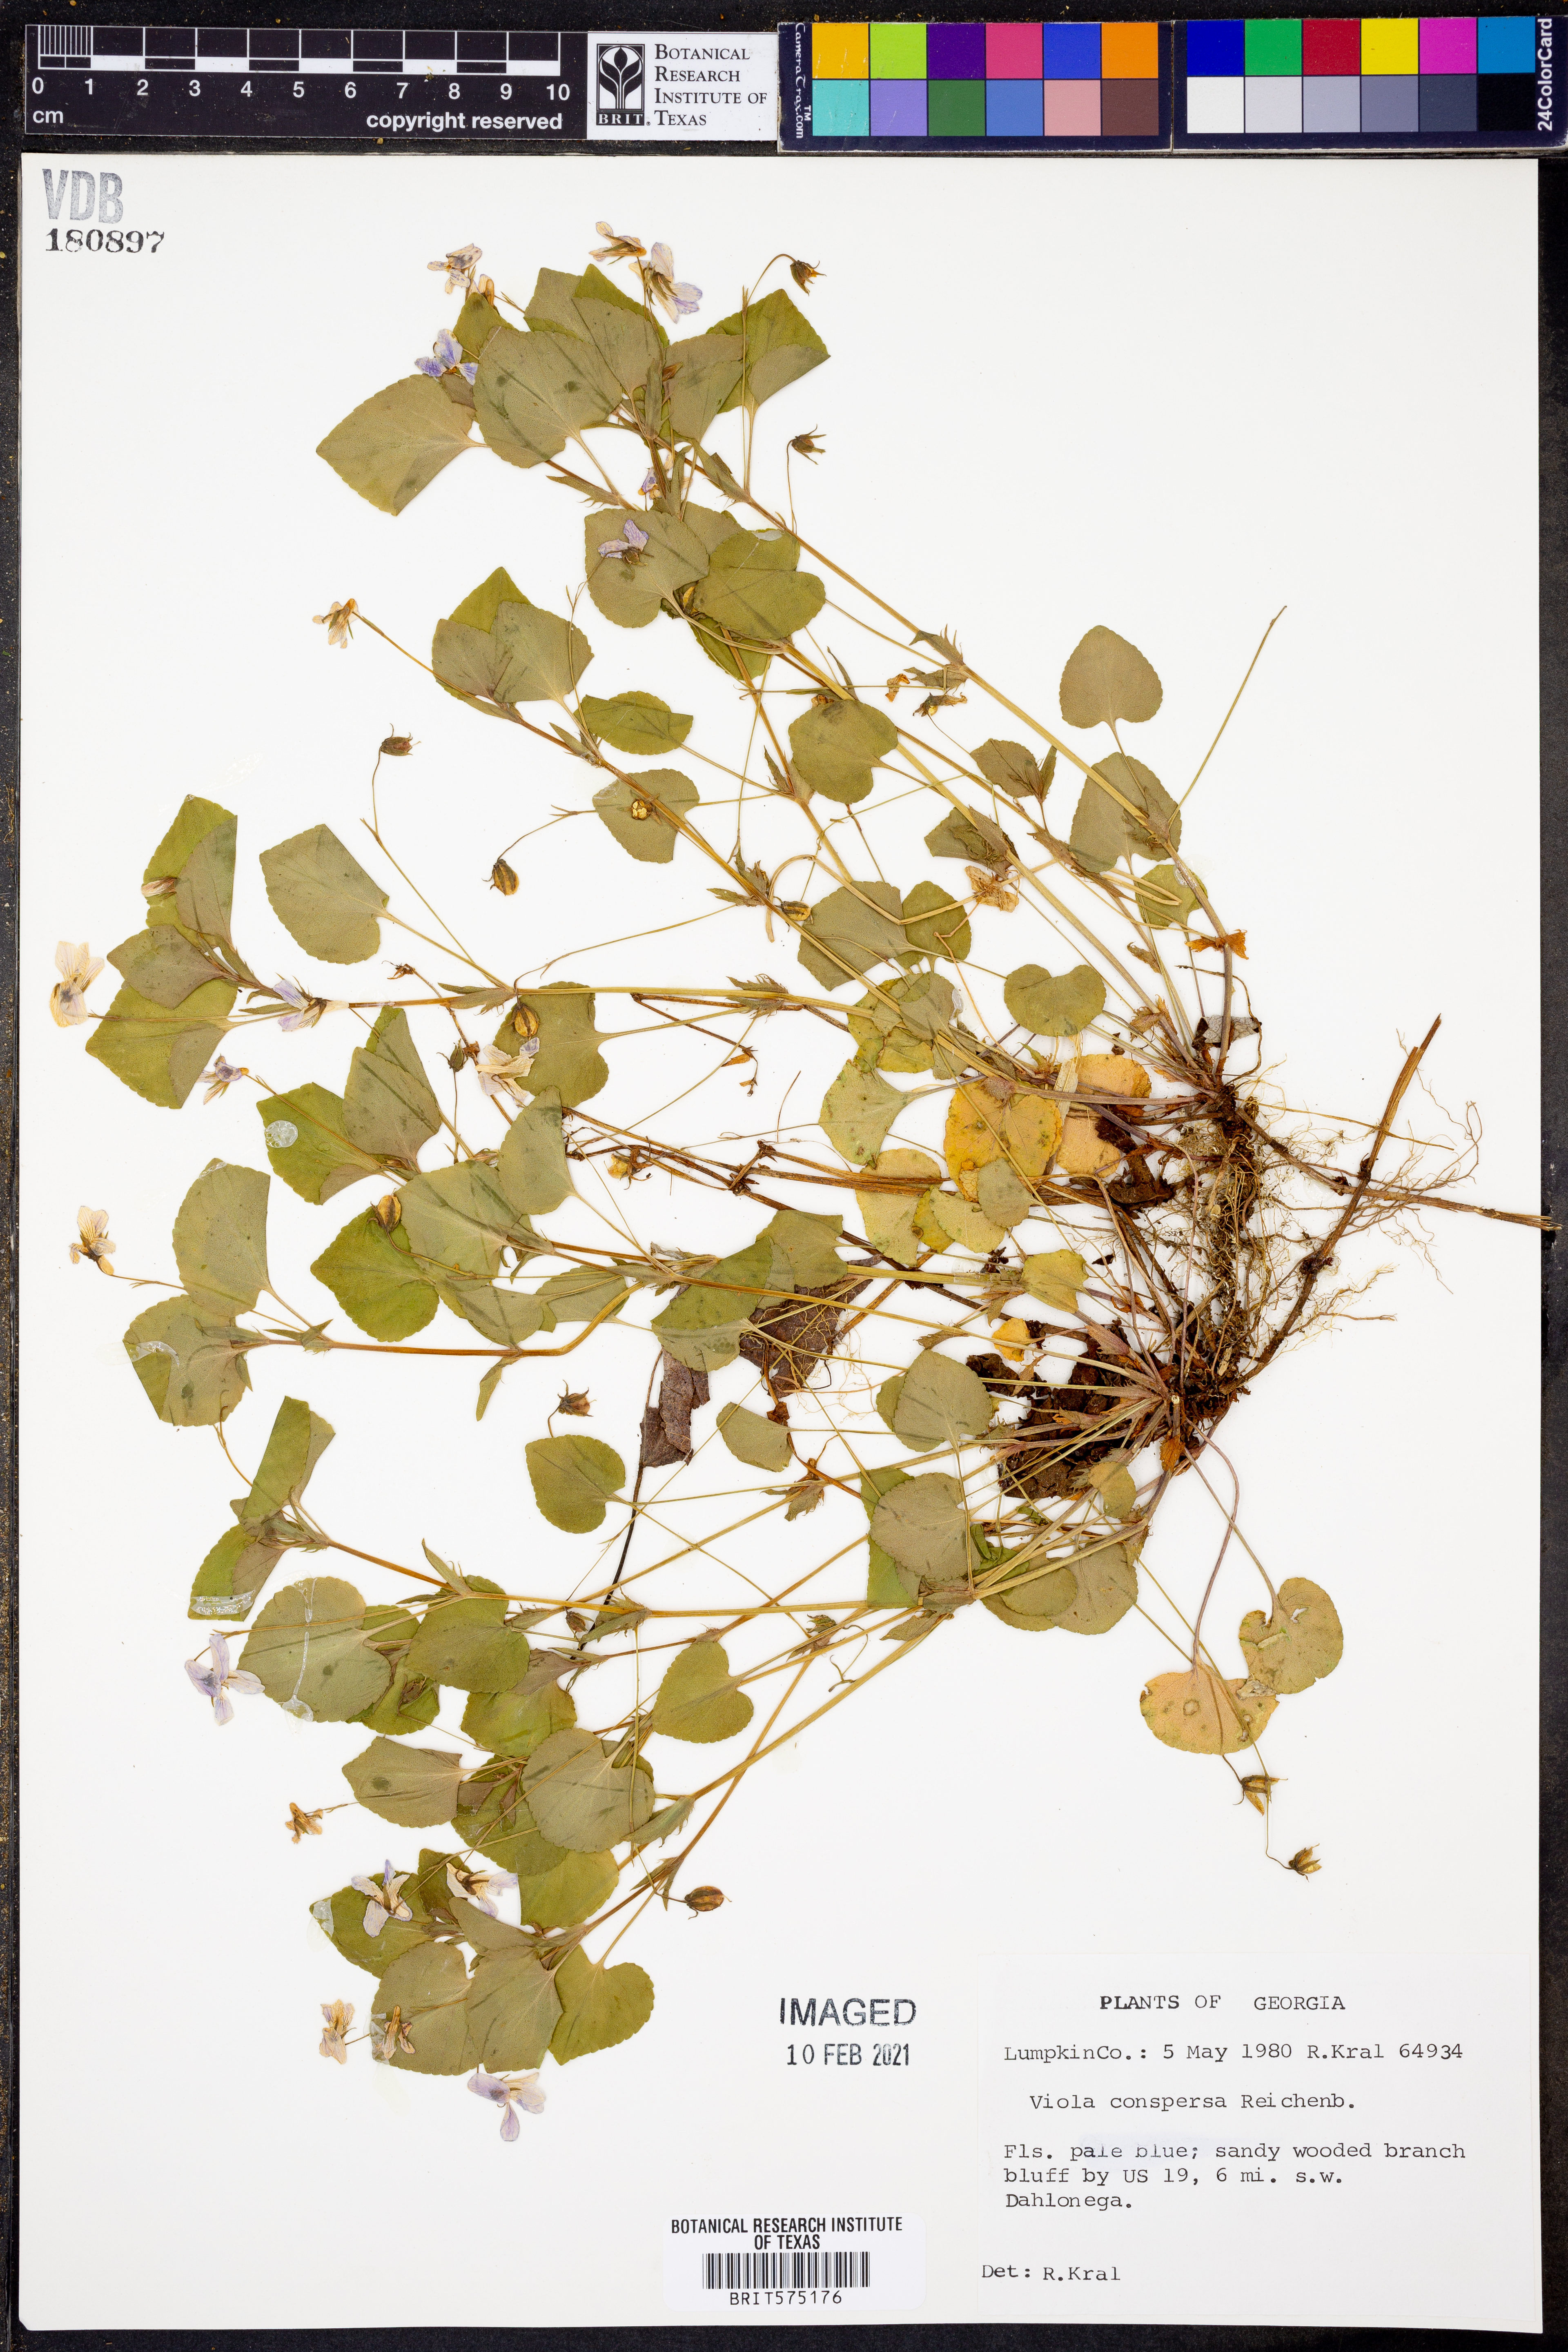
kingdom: Plantae
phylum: Tracheophyta
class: Magnoliopsida
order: Malpighiales
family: Violaceae
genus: Viola
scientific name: Viola labradorica
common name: Labrador violet
